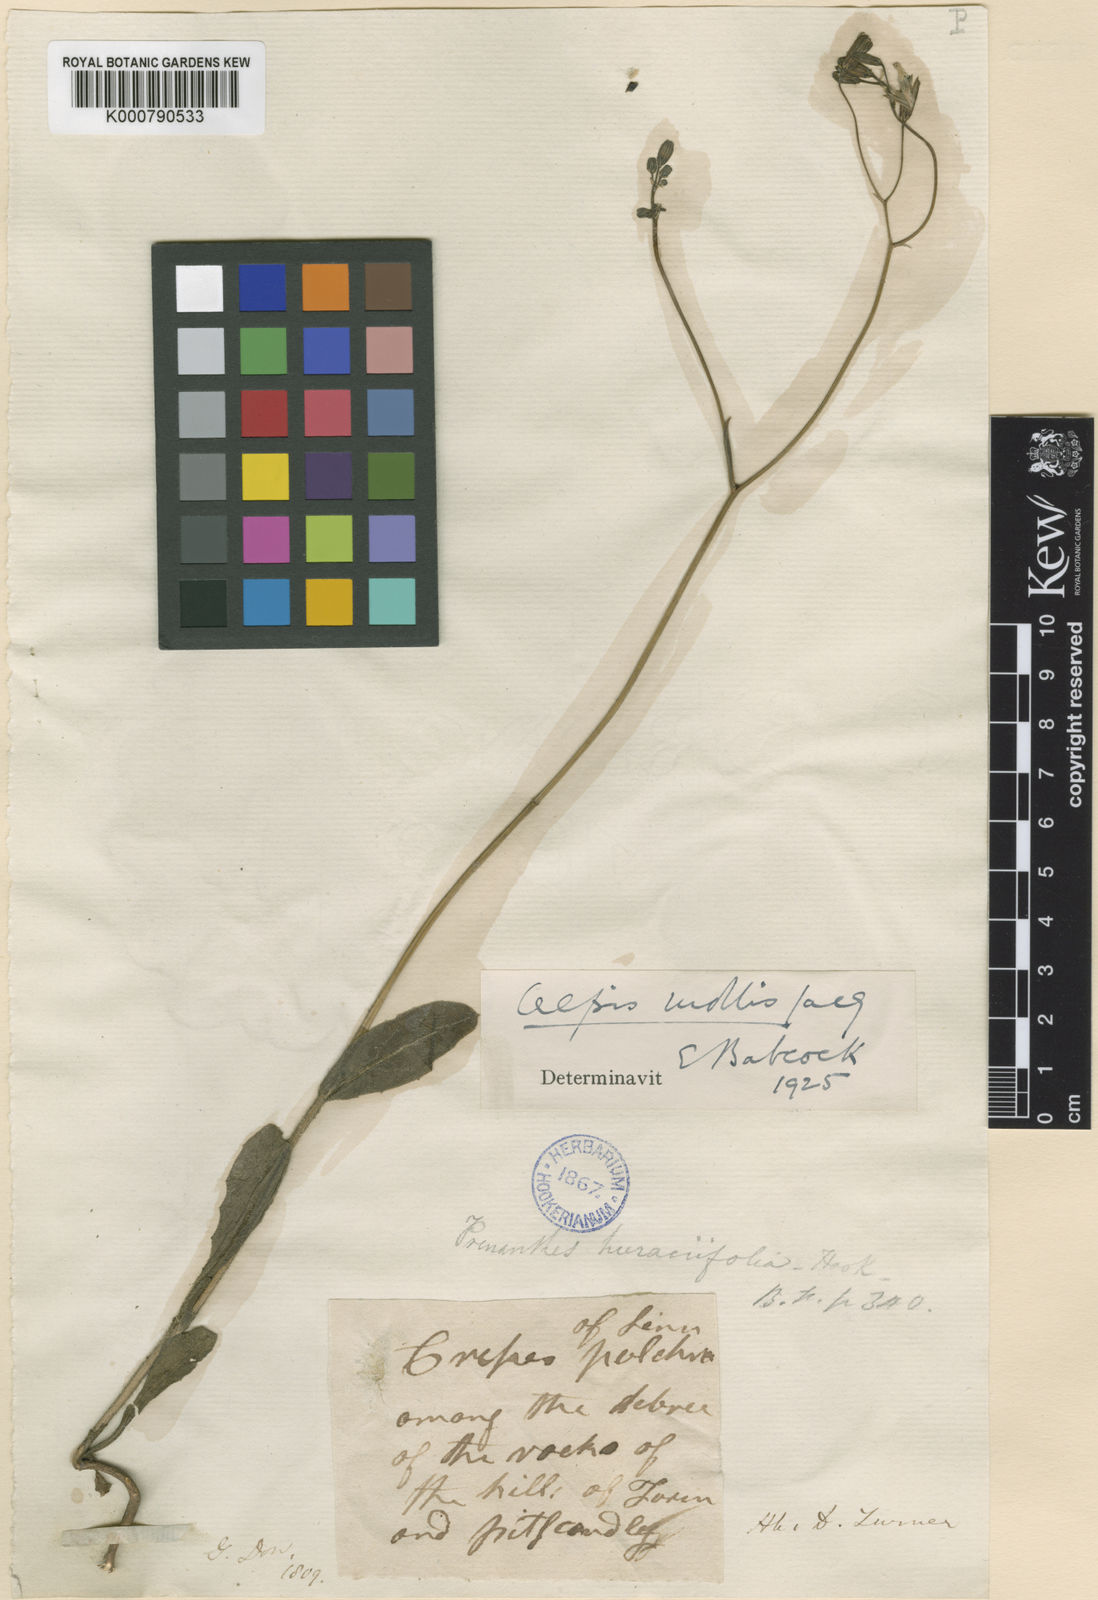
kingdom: Plantae
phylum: Tracheophyta
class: Magnoliopsida
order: Asterales
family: Asteraceae
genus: Crepis
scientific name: Crepis mollis
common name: Northern hawk's-beard
